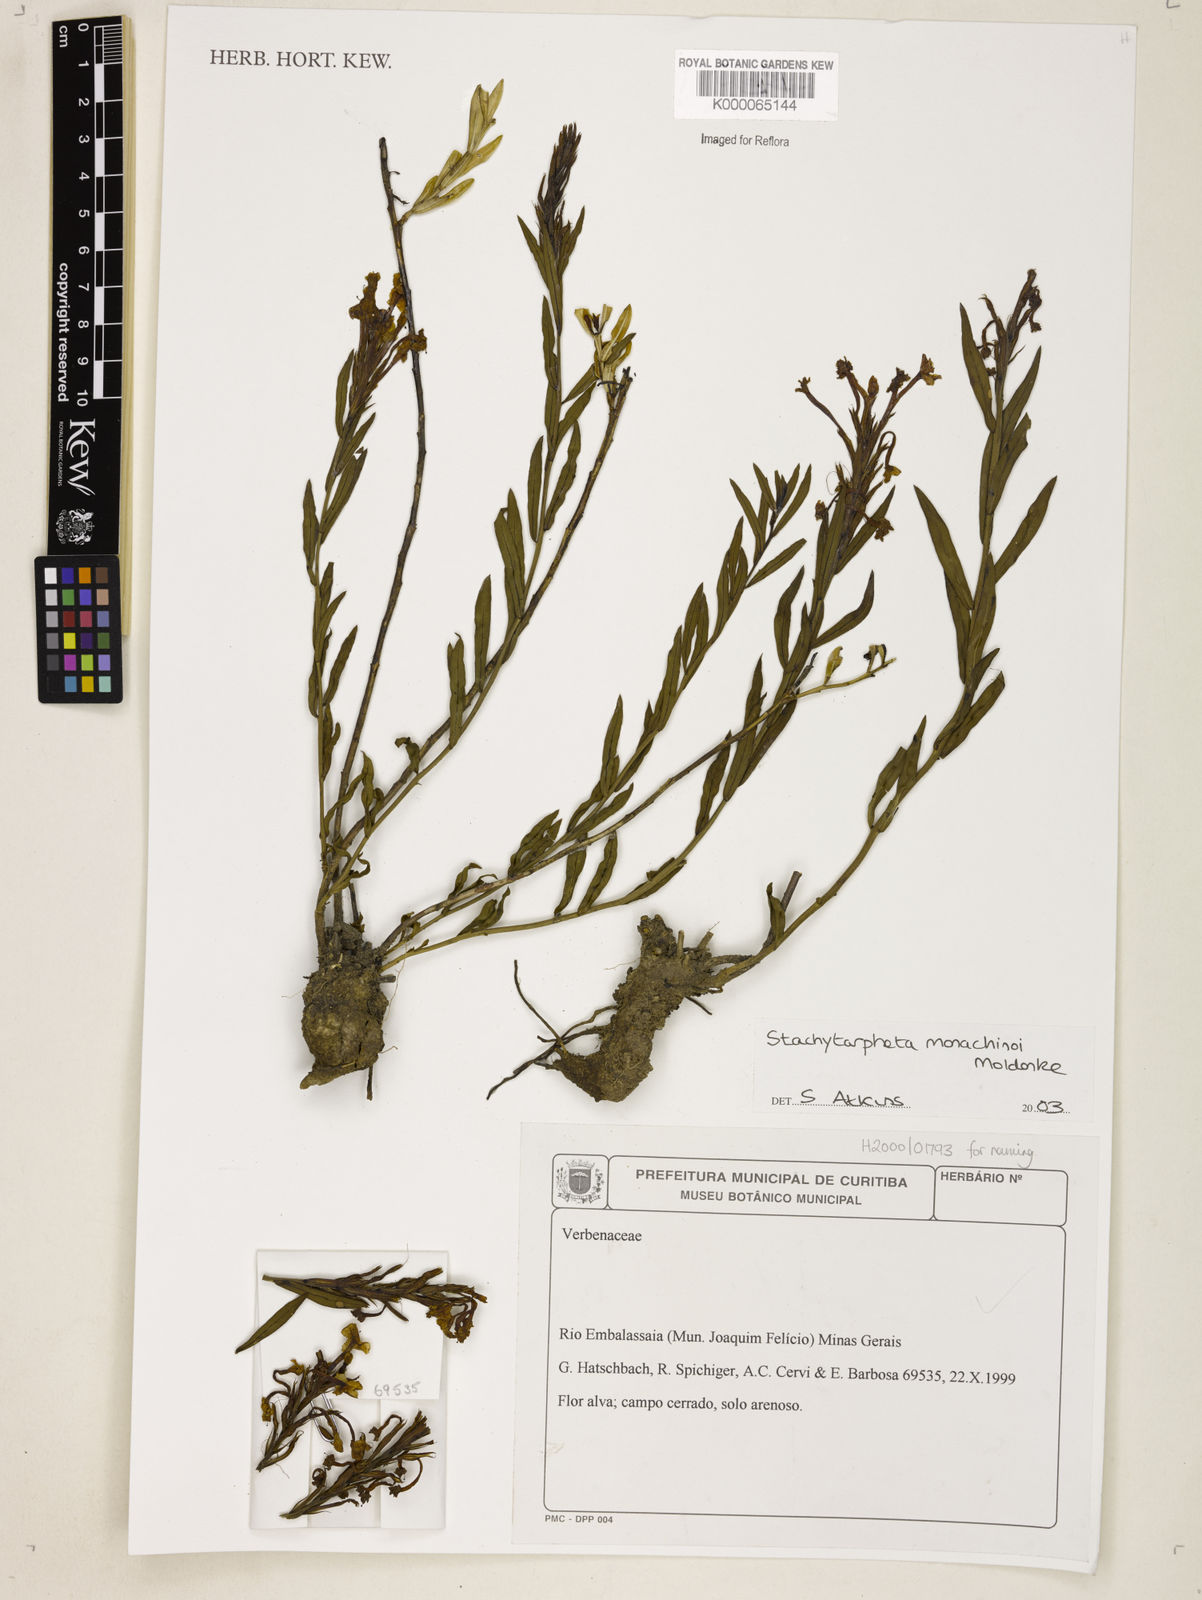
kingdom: Plantae
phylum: Tracheophyta
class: Magnoliopsida
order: Lamiales
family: Verbenaceae
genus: Stachytarpheta
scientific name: Stachytarpheta
